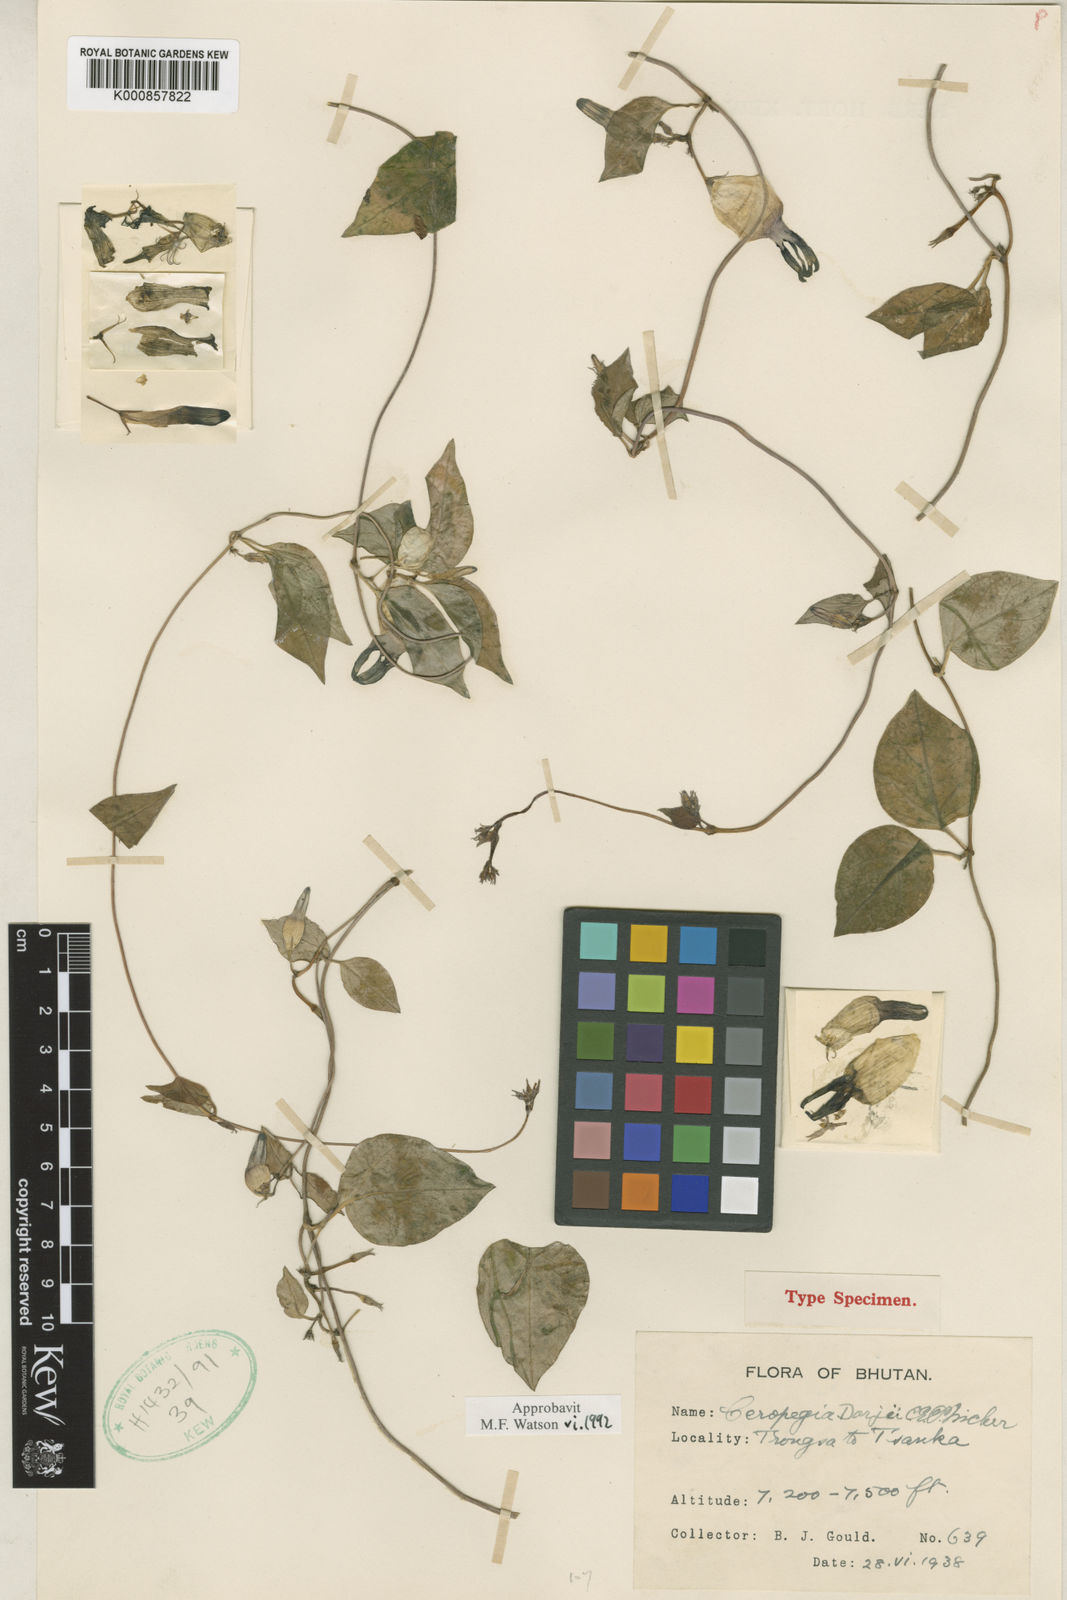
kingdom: Plantae
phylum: Tracheophyta
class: Magnoliopsida
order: Gentianales
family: Apocynaceae
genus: Ceropegia
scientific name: Ceropegia dorjei
